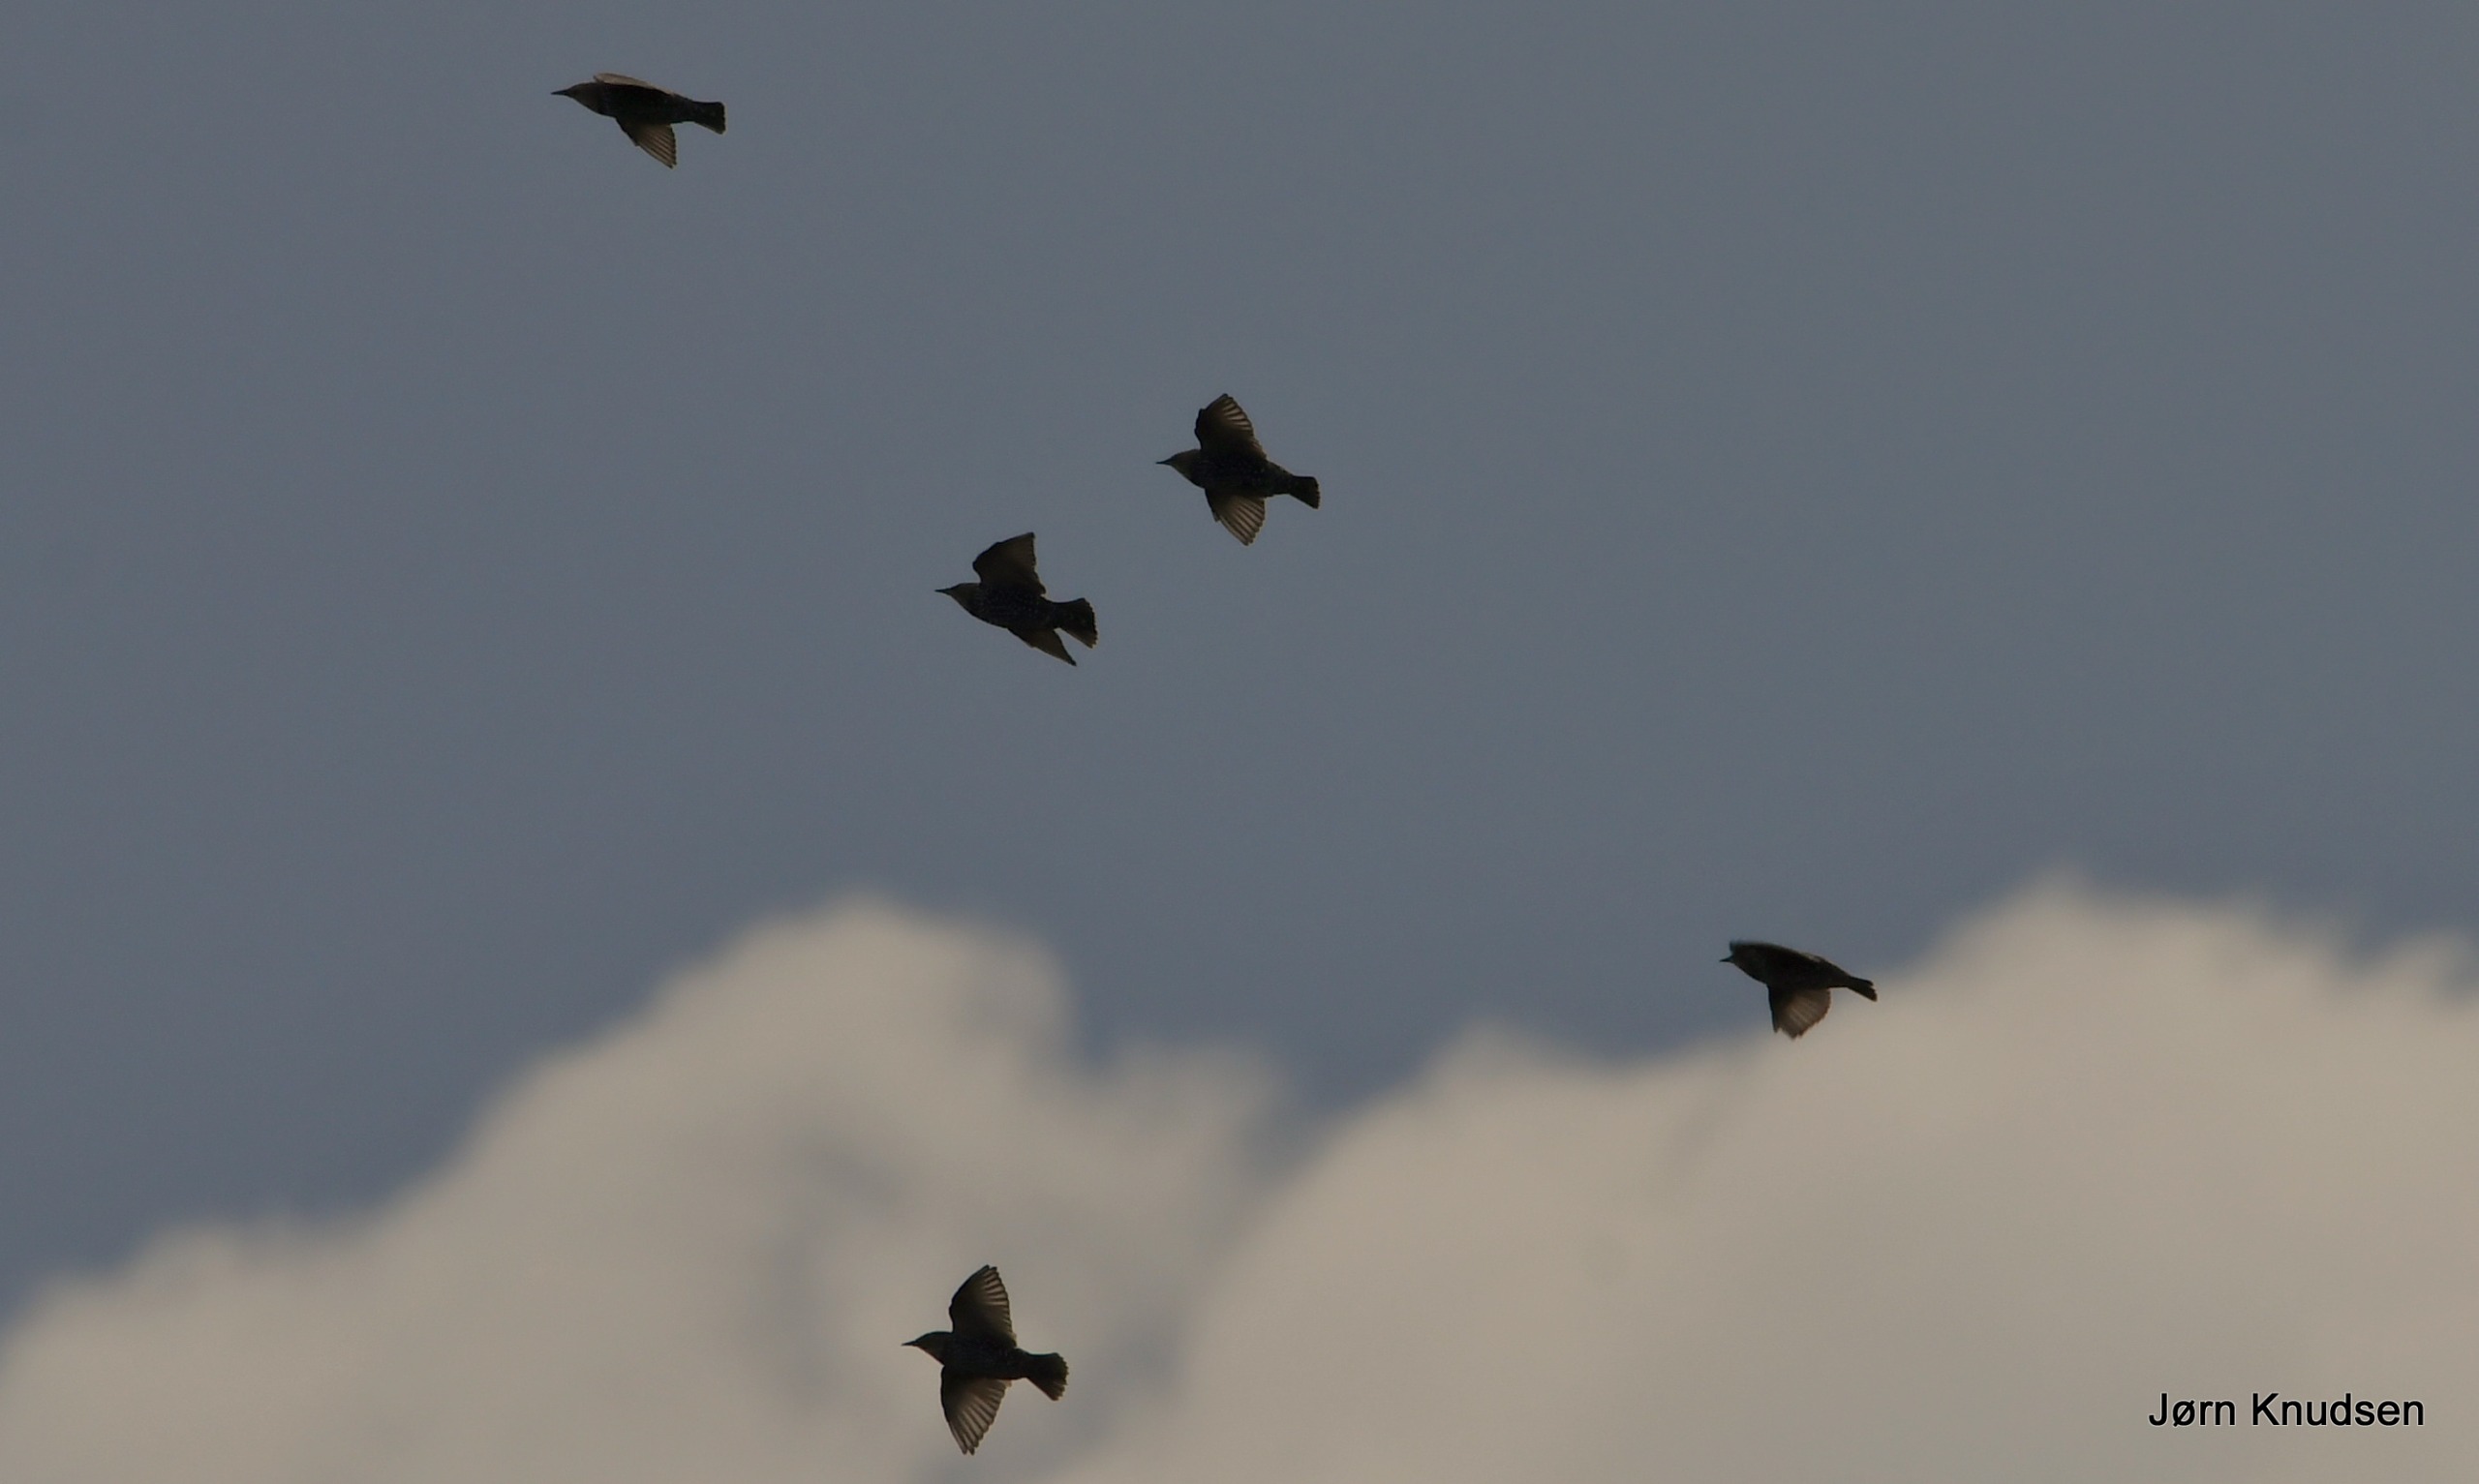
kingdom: Animalia
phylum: Chordata
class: Aves
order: Passeriformes
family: Sturnidae
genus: Sturnus
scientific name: Sturnus vulgaris
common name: Stær
